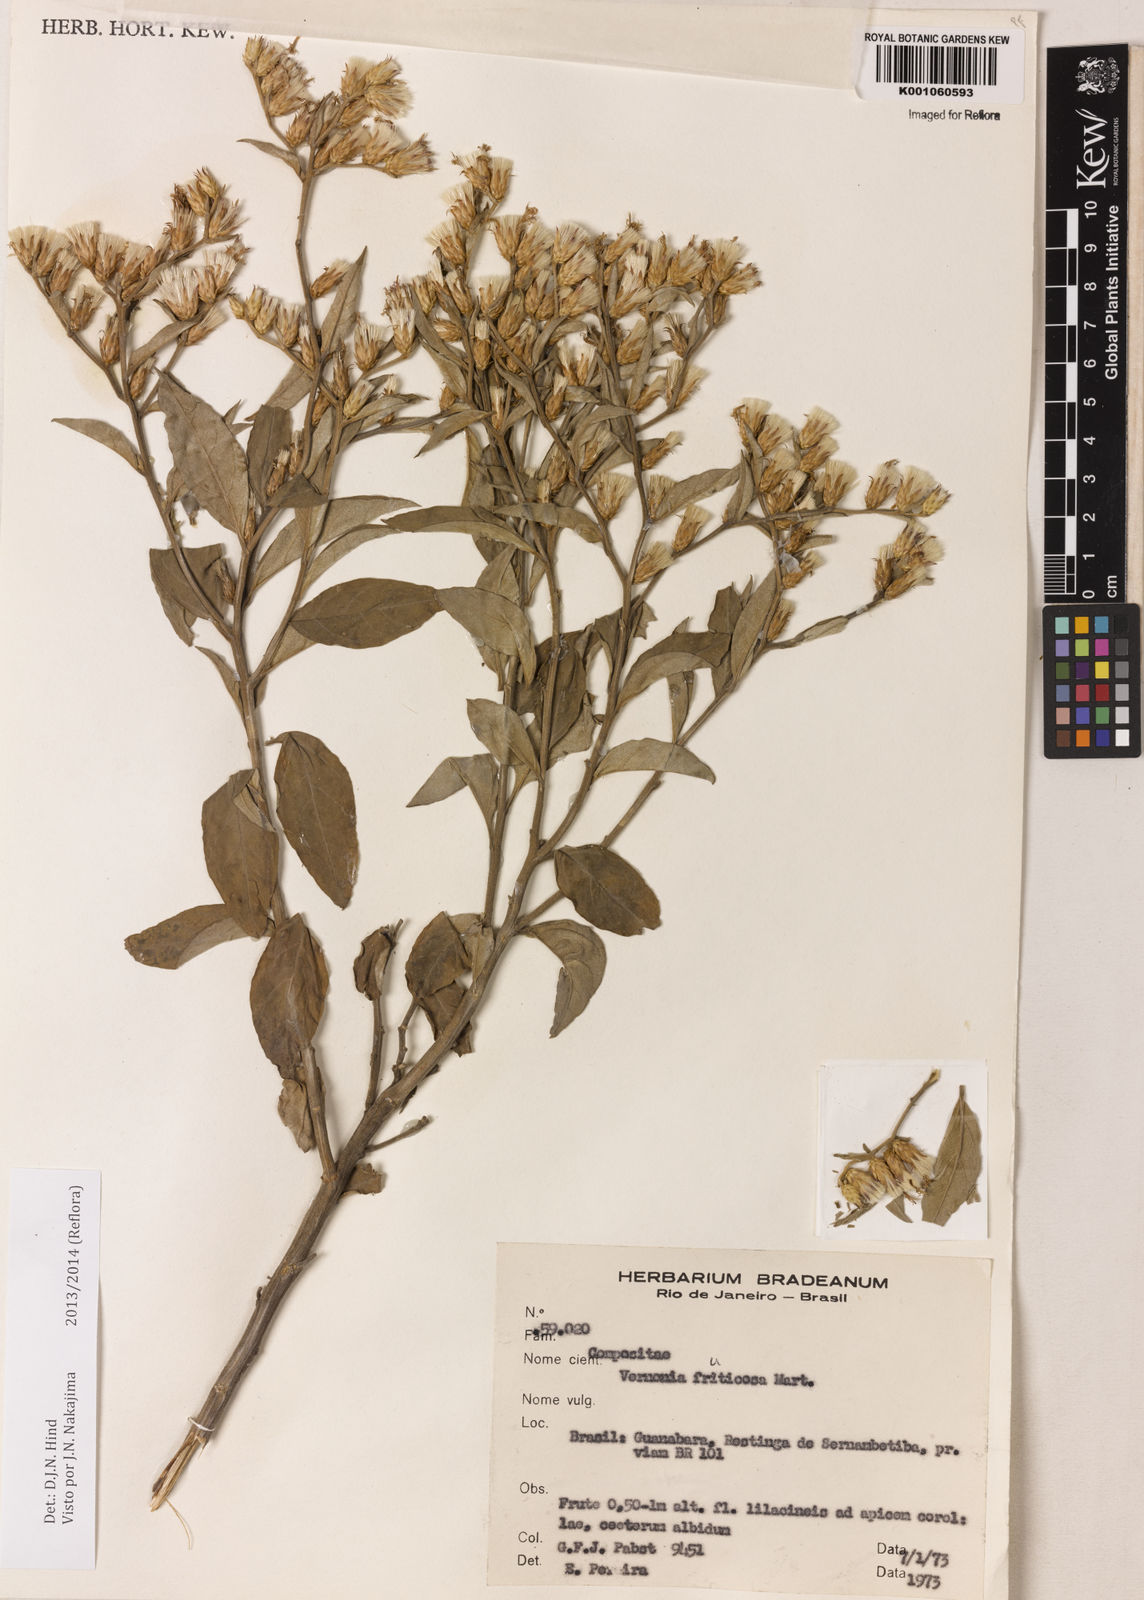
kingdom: Plantae
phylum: Tracheophyta
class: Magnoliopsida
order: Asterales
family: Asteraceae
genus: Lepidaploa
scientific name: Lepidaploa rufogrisea
